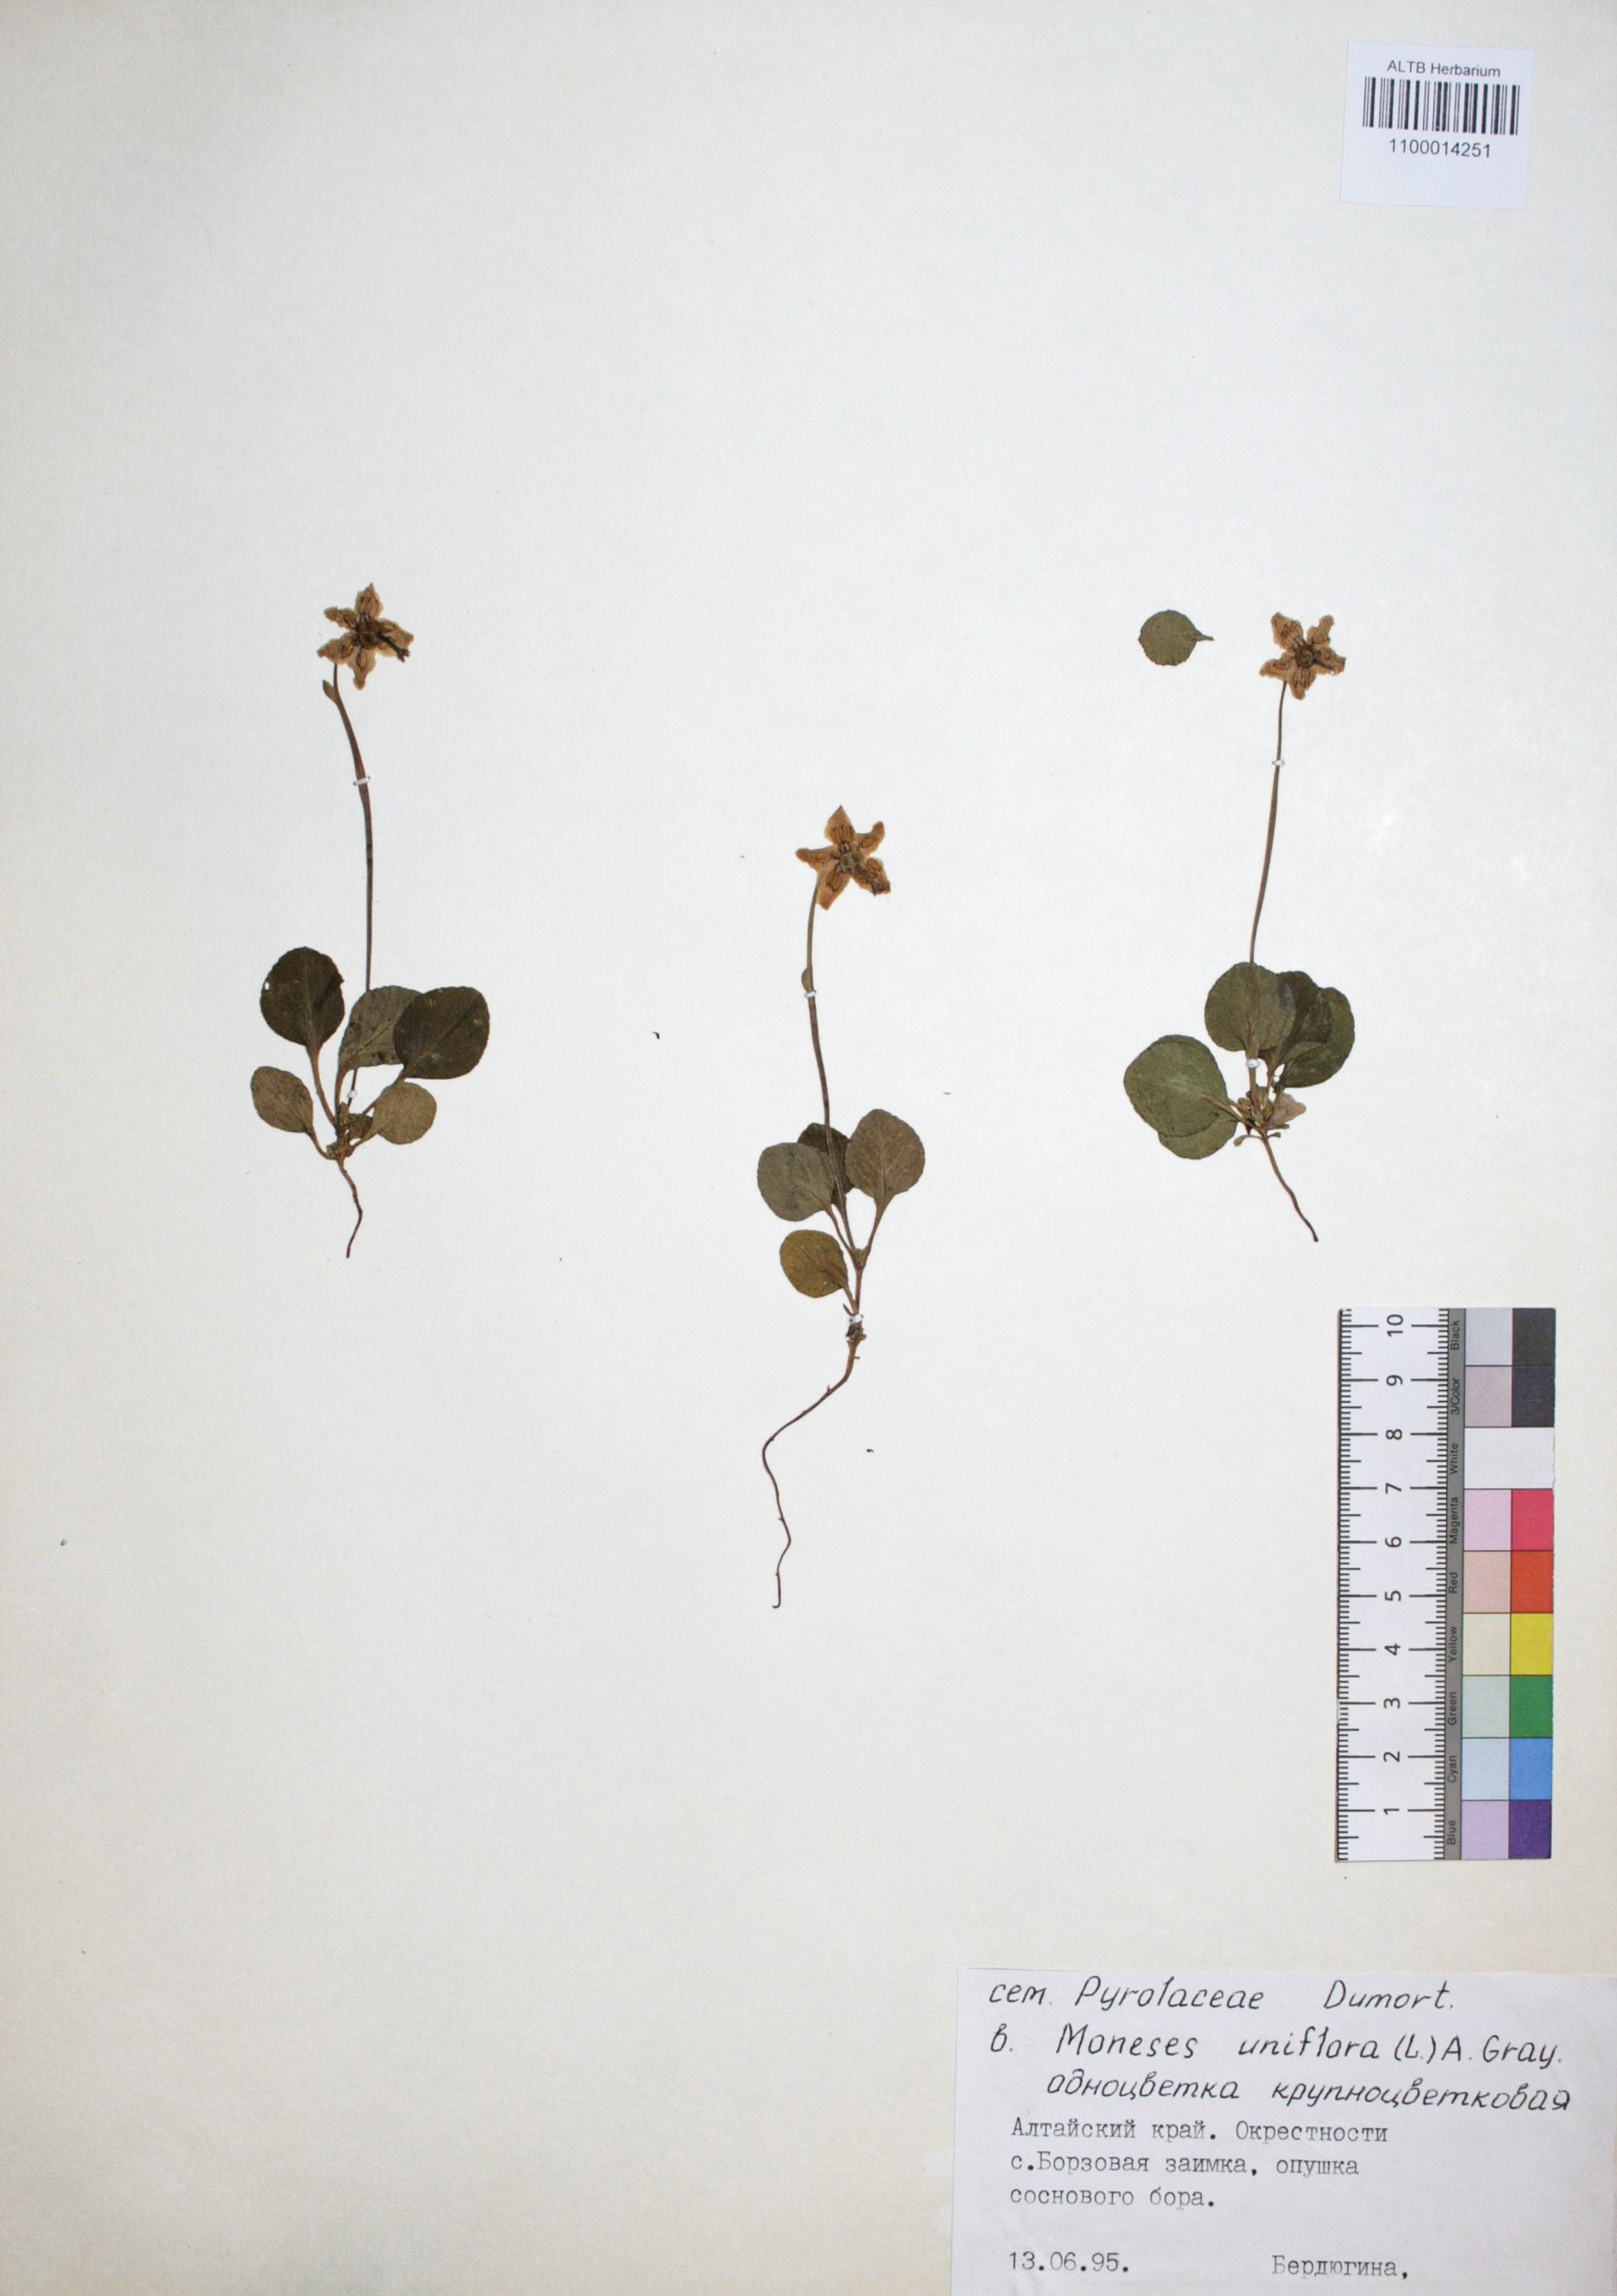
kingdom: Plantae
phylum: Tracheophyta
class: Magnoliopsida
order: Ericales
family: Ericaceae
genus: Moneses
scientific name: Moneses uniflora
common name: One-flowered wintergreen
